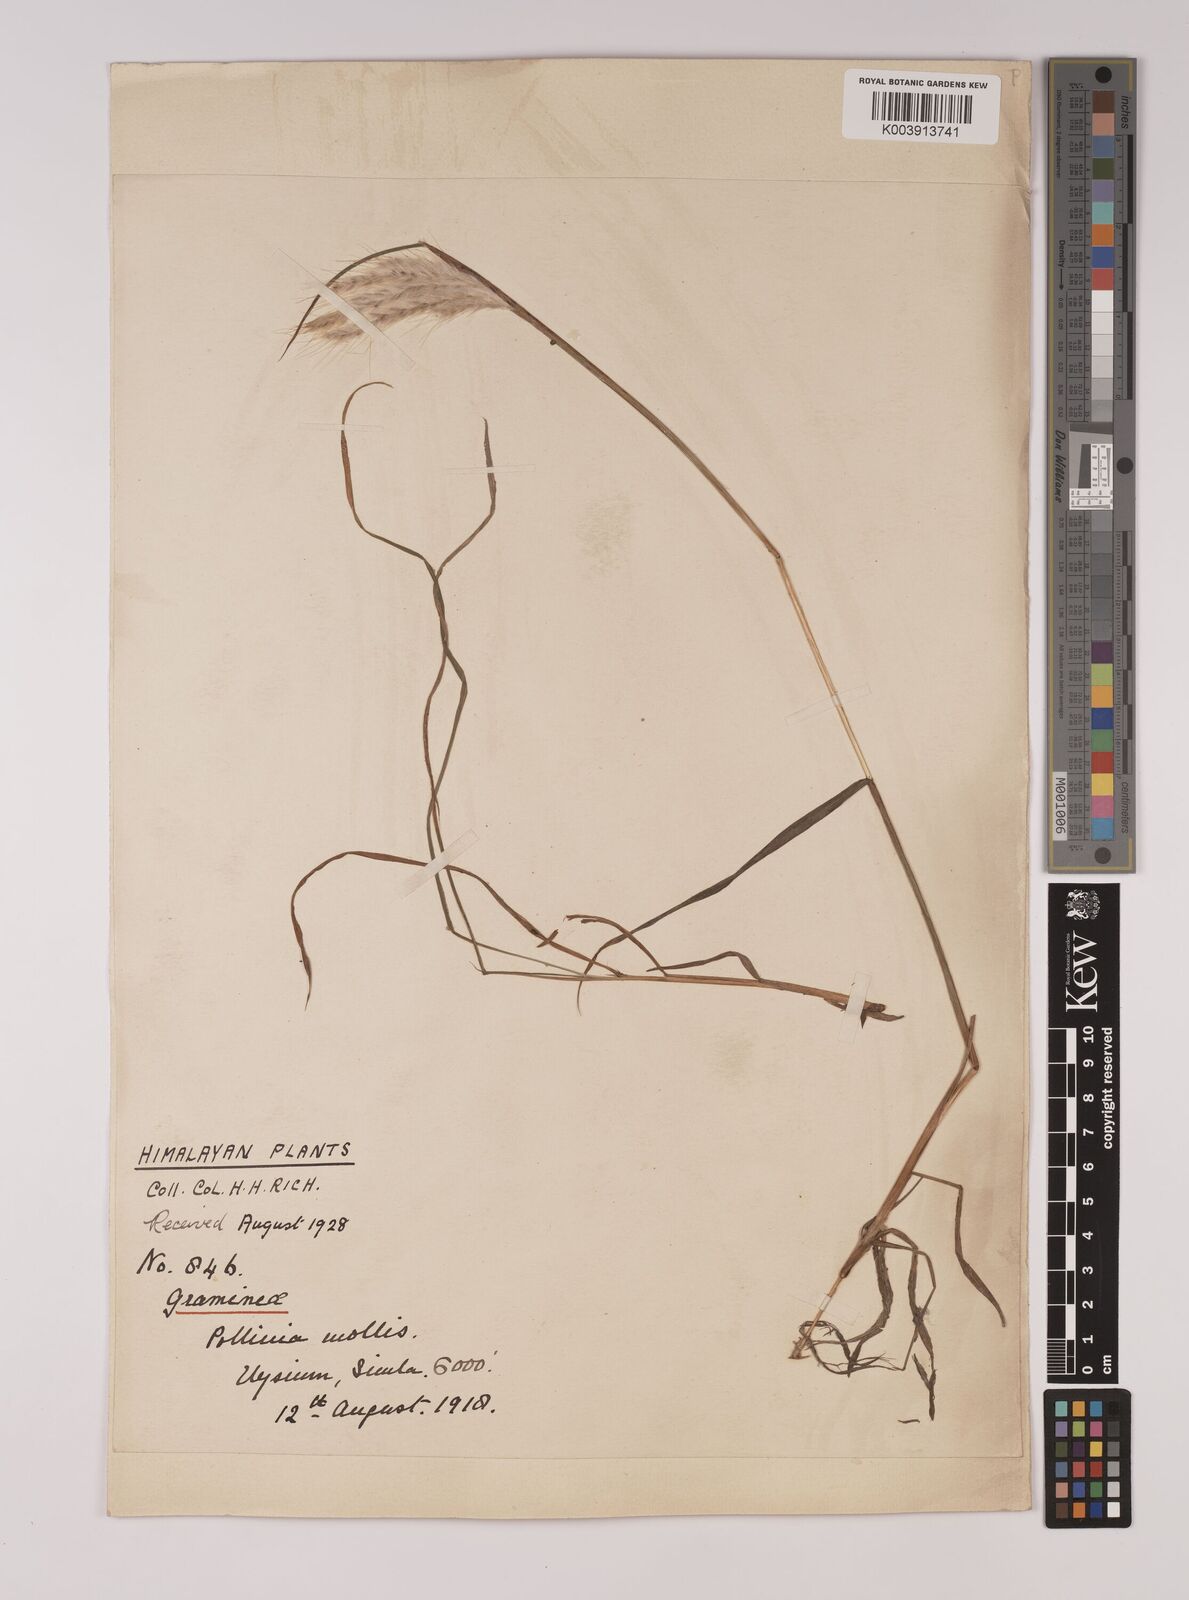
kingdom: Plantae
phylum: Tracheophyta
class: Liliopsida
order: Poales
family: Poaceae
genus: Eulalia
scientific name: Eulalia mollis
